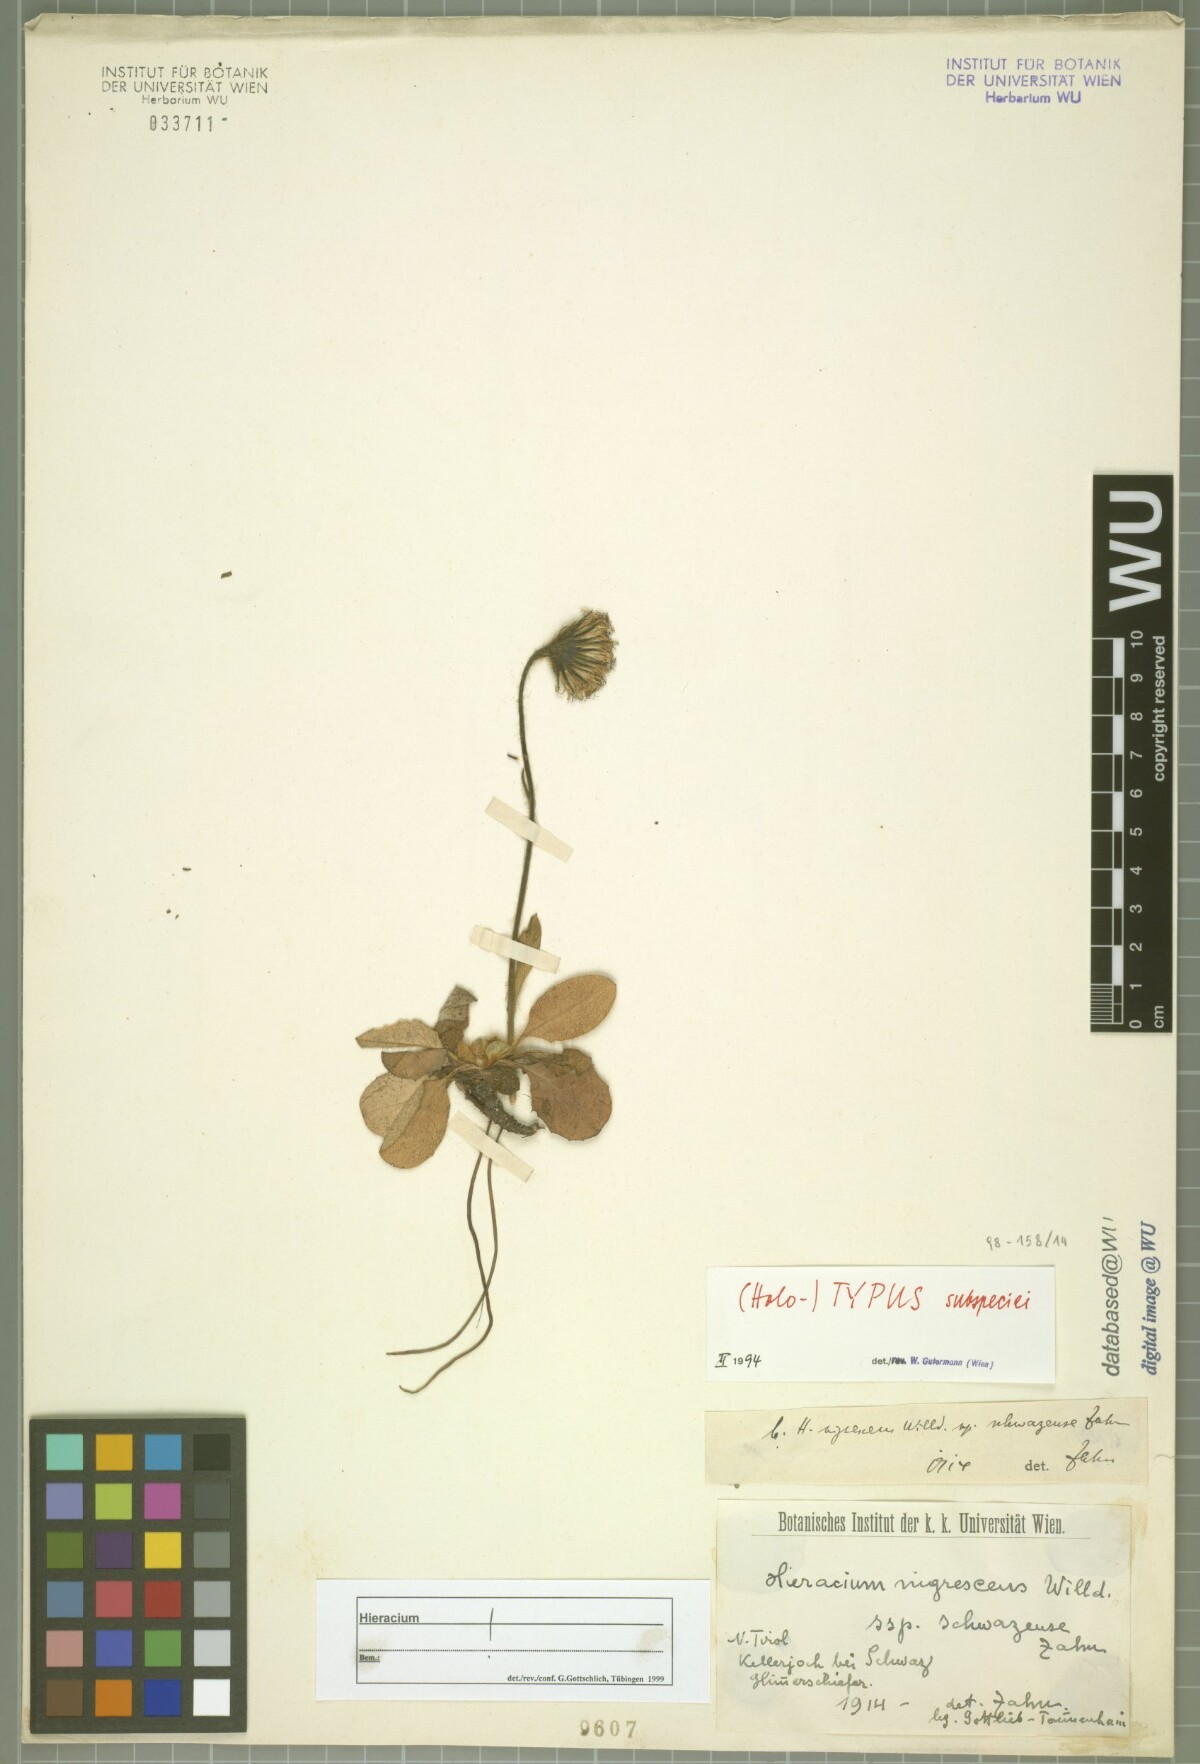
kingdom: Plantae
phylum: Tracheophyta
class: Magnoliopsida
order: Asterales
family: Asteraceae
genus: Hieracium
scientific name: Hieracium nigrescens
